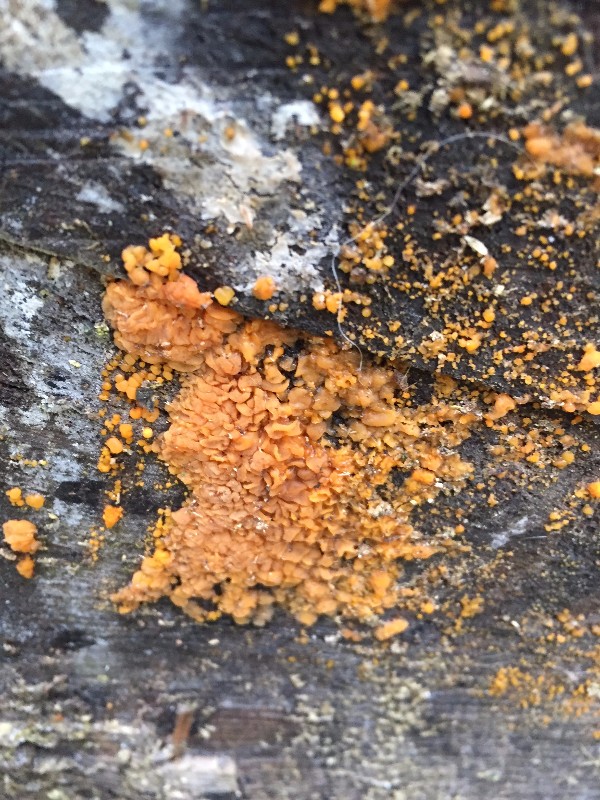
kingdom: Fungi
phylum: Basidiomycota
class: Dacrymycetes
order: Dacrymycetales
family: Dacrymycetaceae
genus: Dacrymyces
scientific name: Dacrymyces stillatus
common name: almindelig tåresvamp
